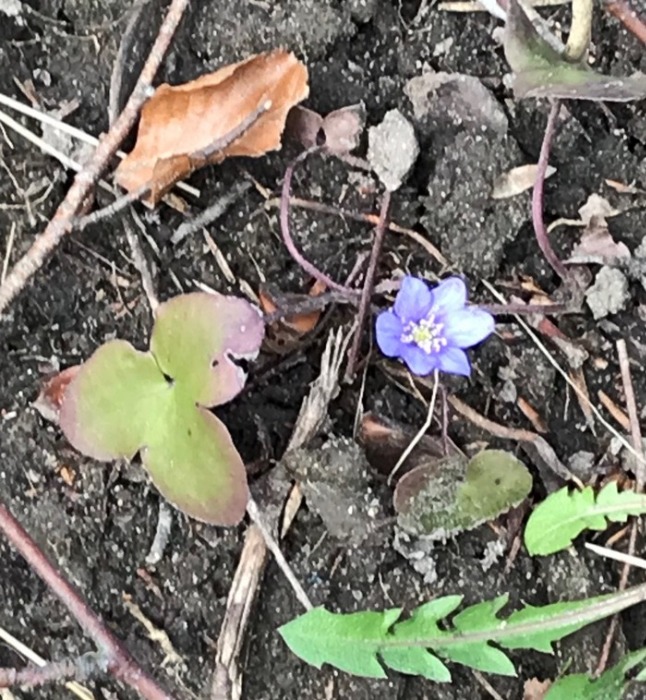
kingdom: Plantae
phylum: Tracheophyta
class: Magnoliopsida
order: Ranunculales
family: Ranunculaceae
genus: Hepatica
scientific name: Hepatica nobilis
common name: Blå anemone
